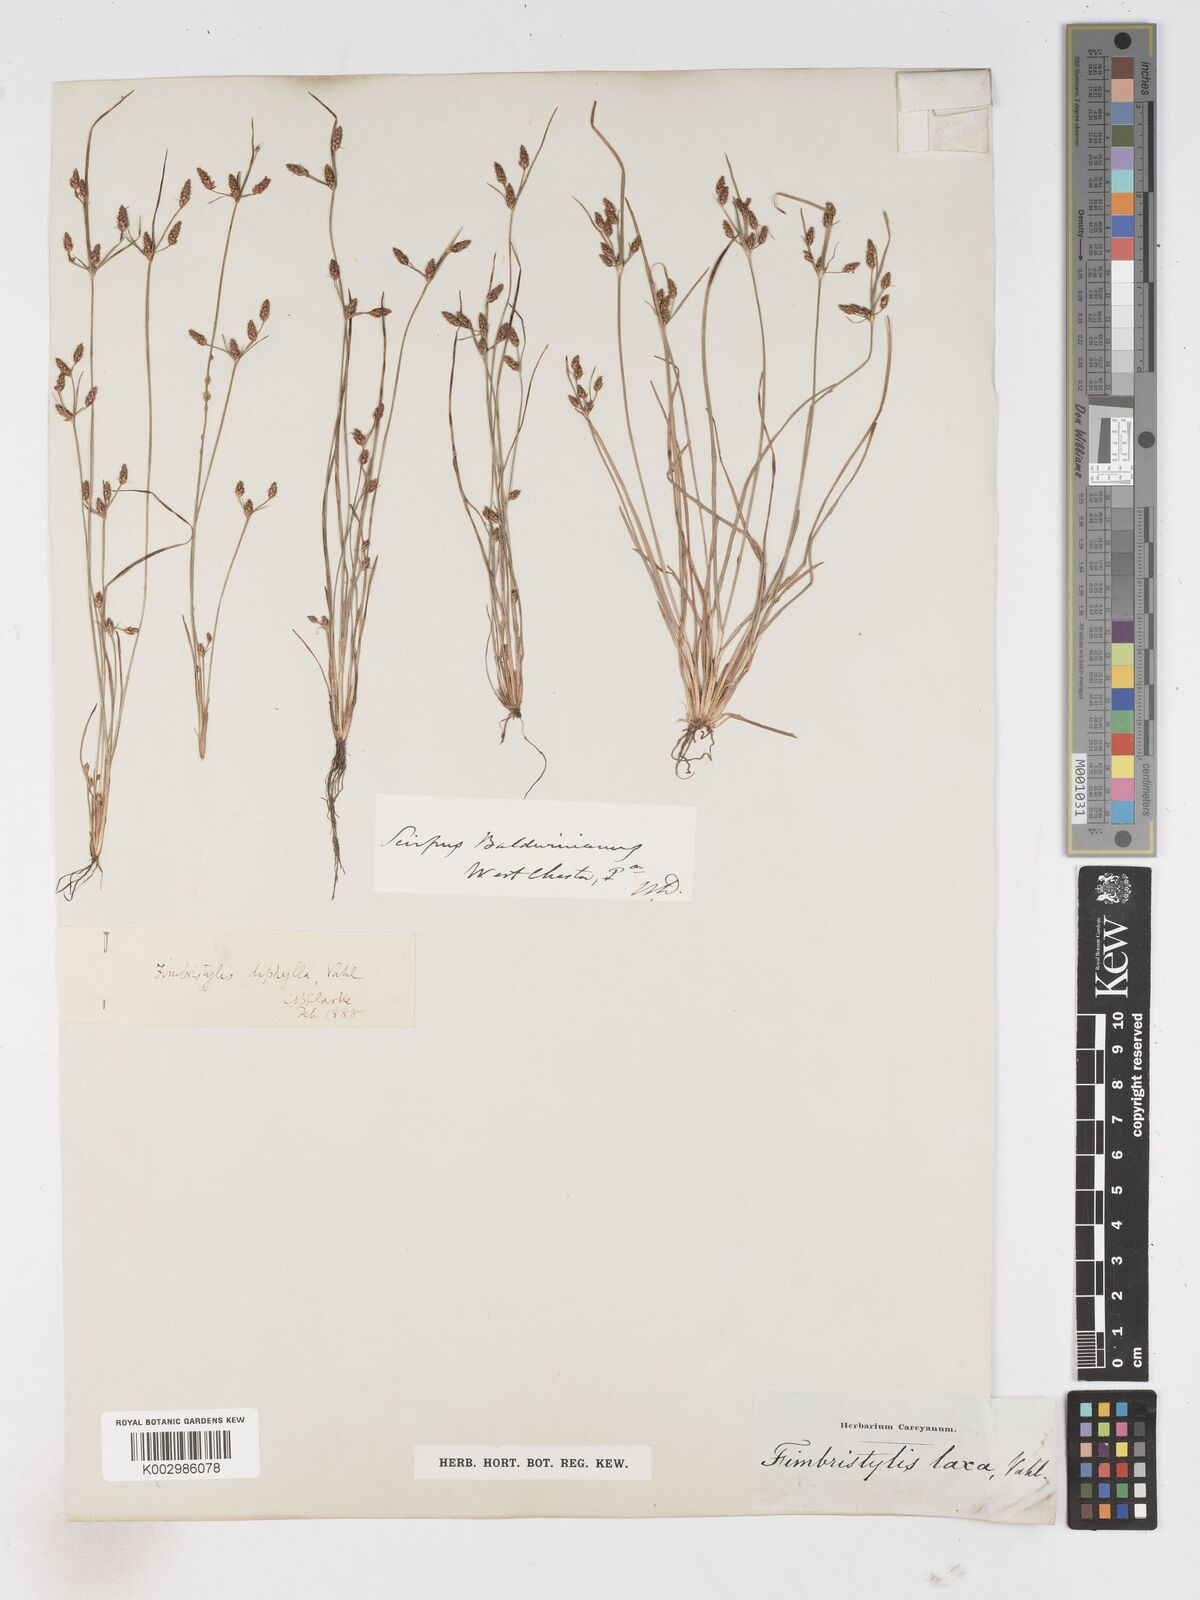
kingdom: Plantae
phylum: Tracheophyta
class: Liliopsida
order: Poales
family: Cyperaceae
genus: Fimbristylis
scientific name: Fimbristylis dichotoma
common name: Forked fimbry
